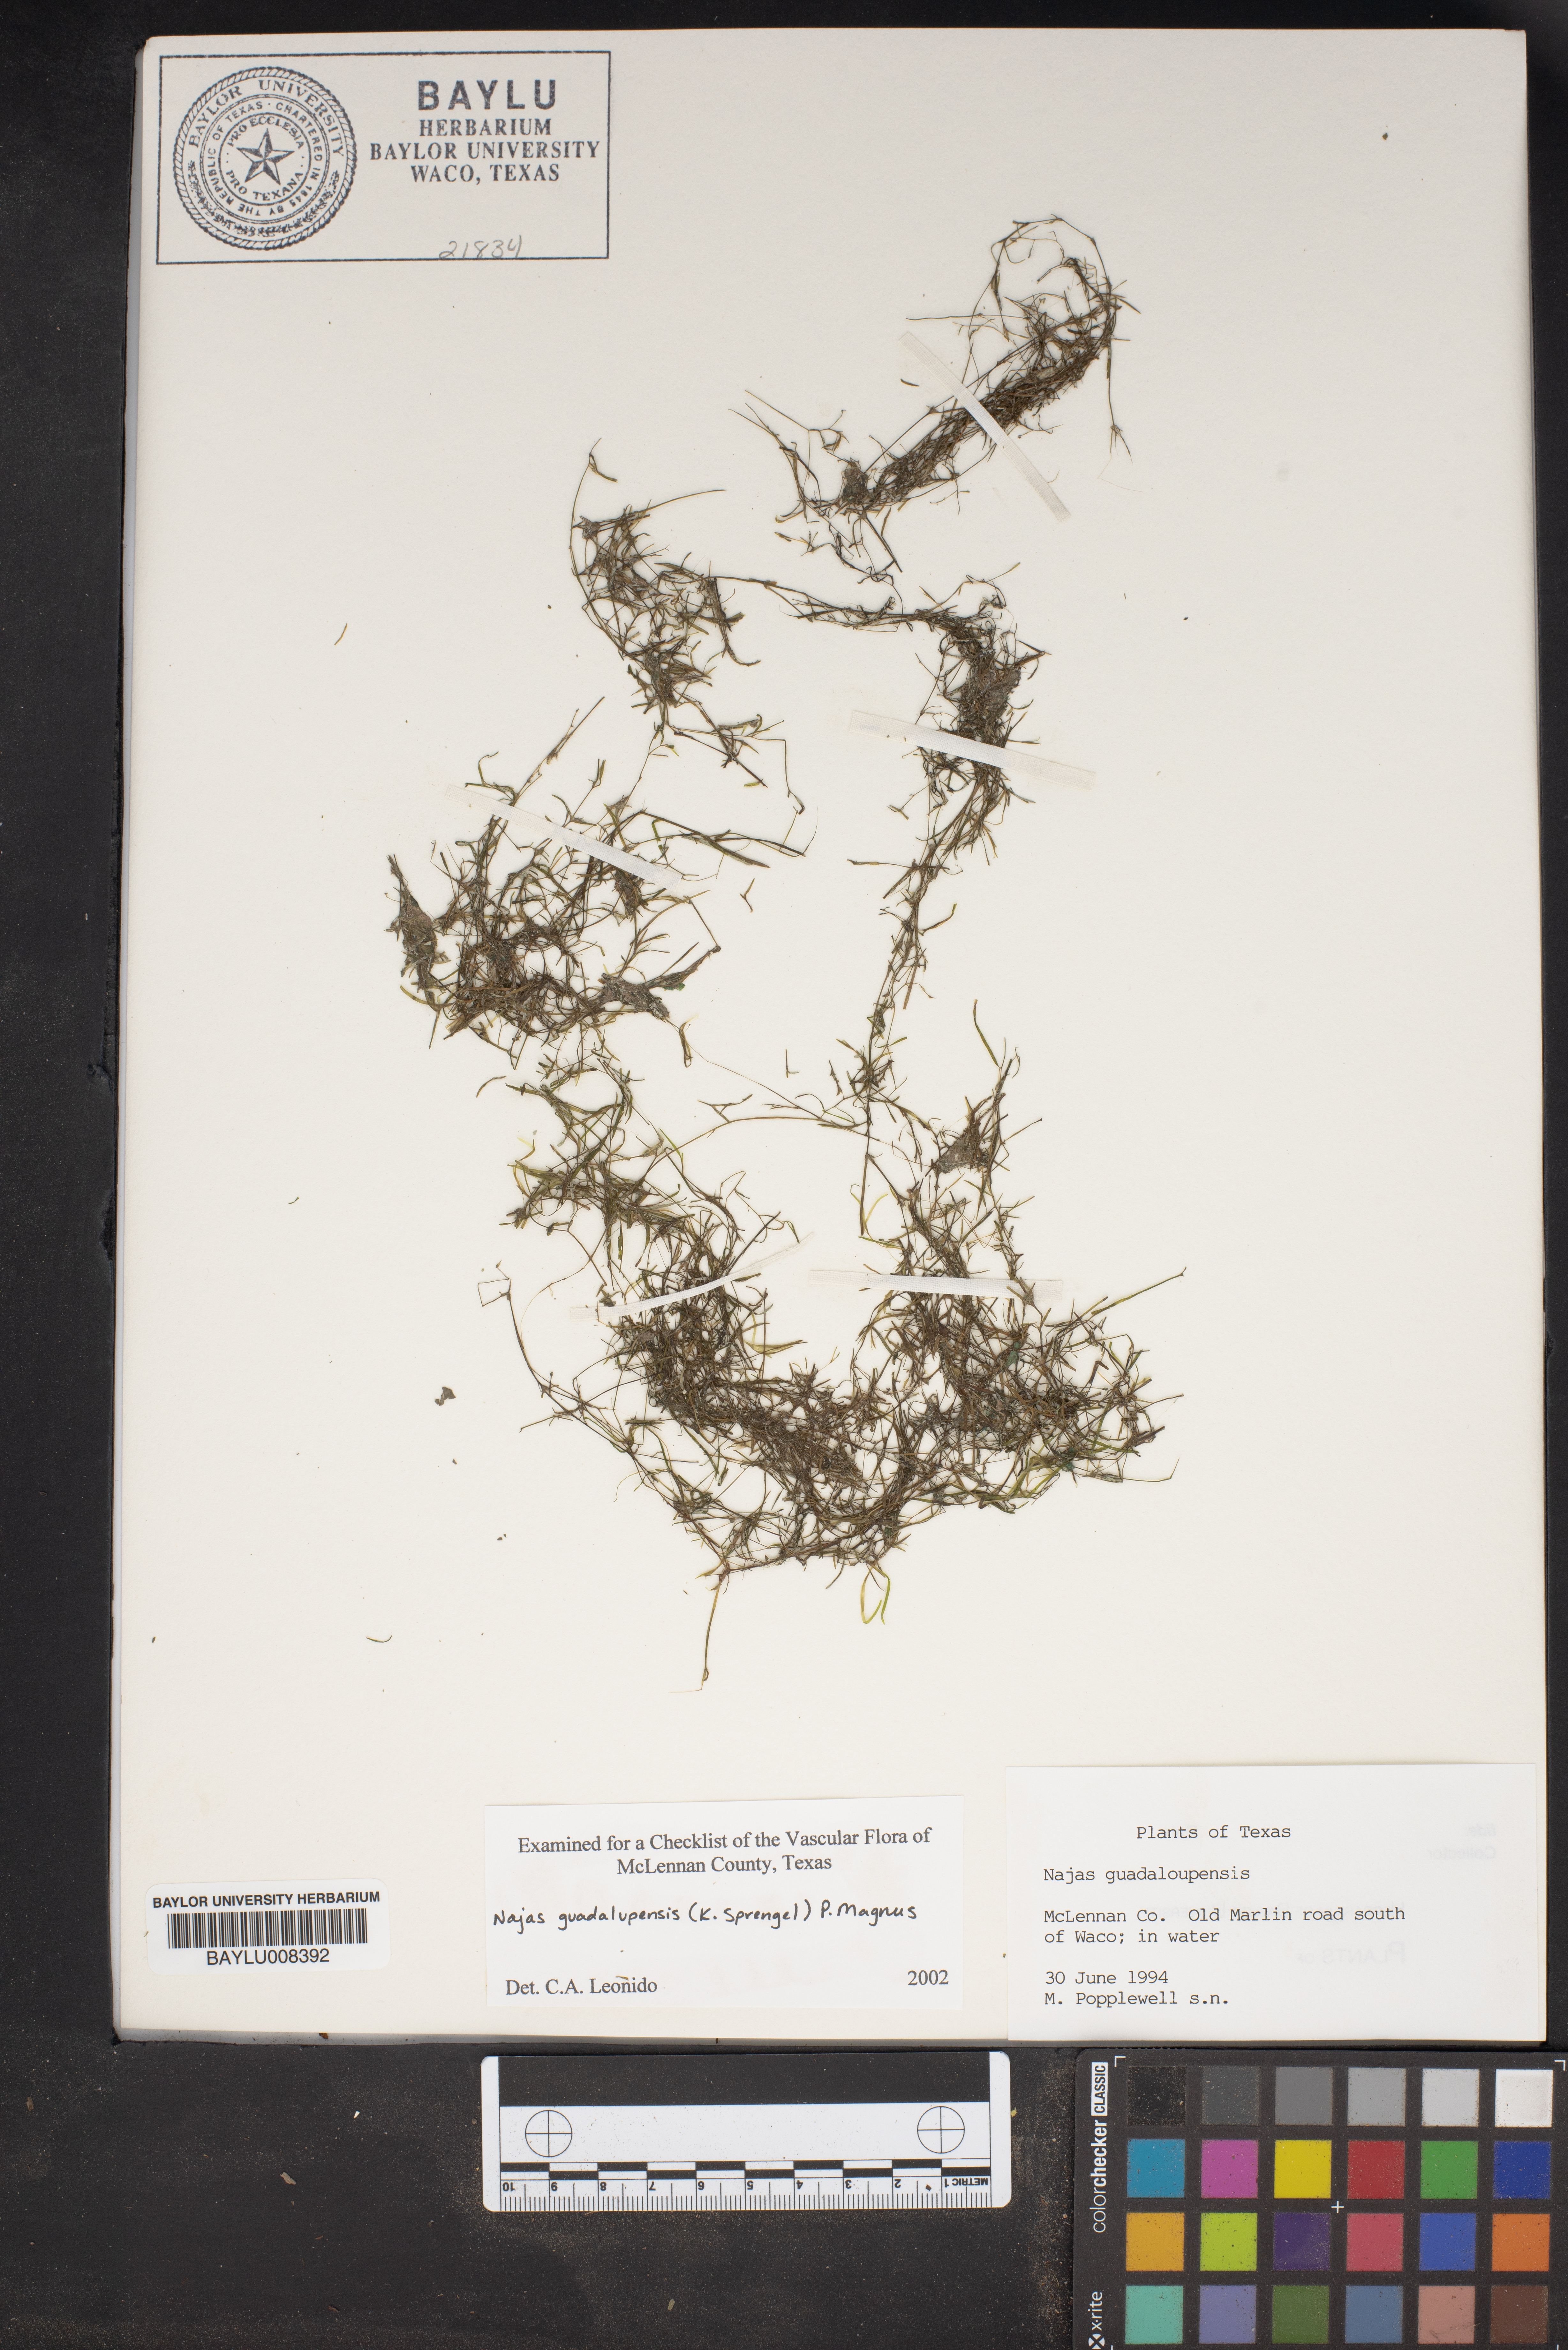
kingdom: Plantae
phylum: Tracheophyta
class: Liliopsida
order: Alismatales
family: Hydrocharitaceae
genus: Najas
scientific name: Najas guadalupensis
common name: Southern naiad
